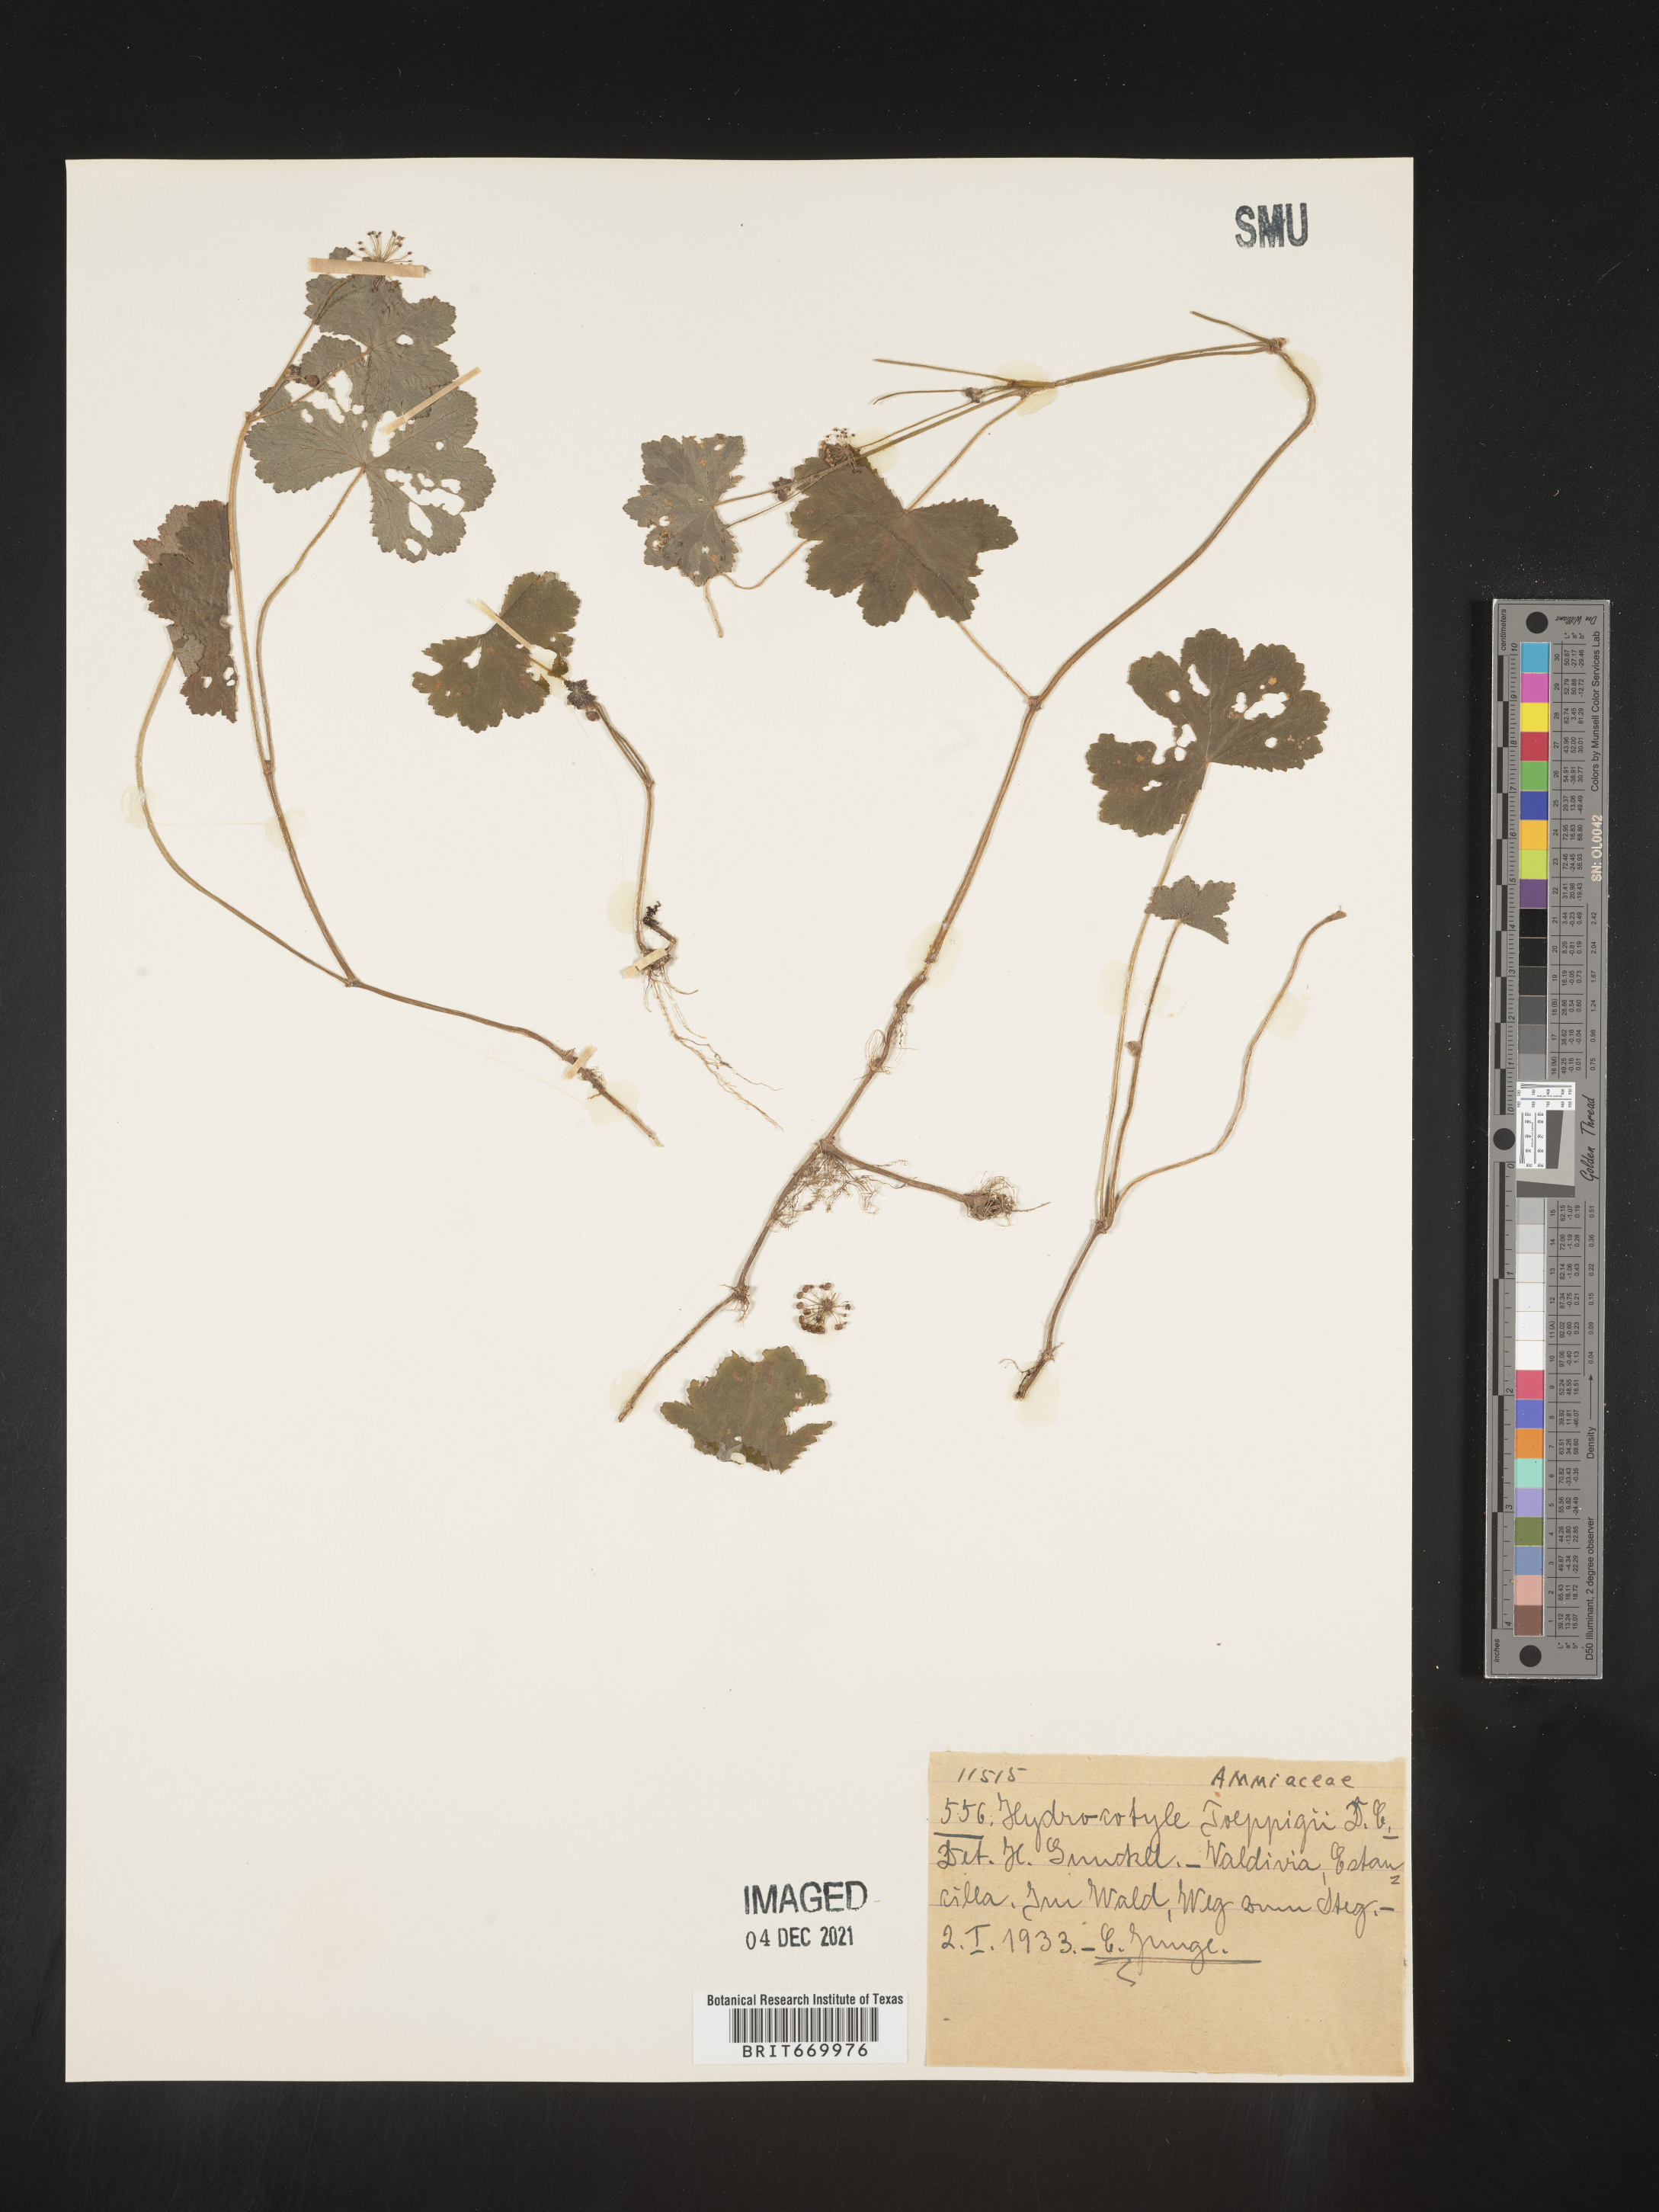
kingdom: Plantae
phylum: Tracheophyta
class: Magnoliopsida
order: Apiales
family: Araliaceae
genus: Hydrocotyle
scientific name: Hydrocotyle
